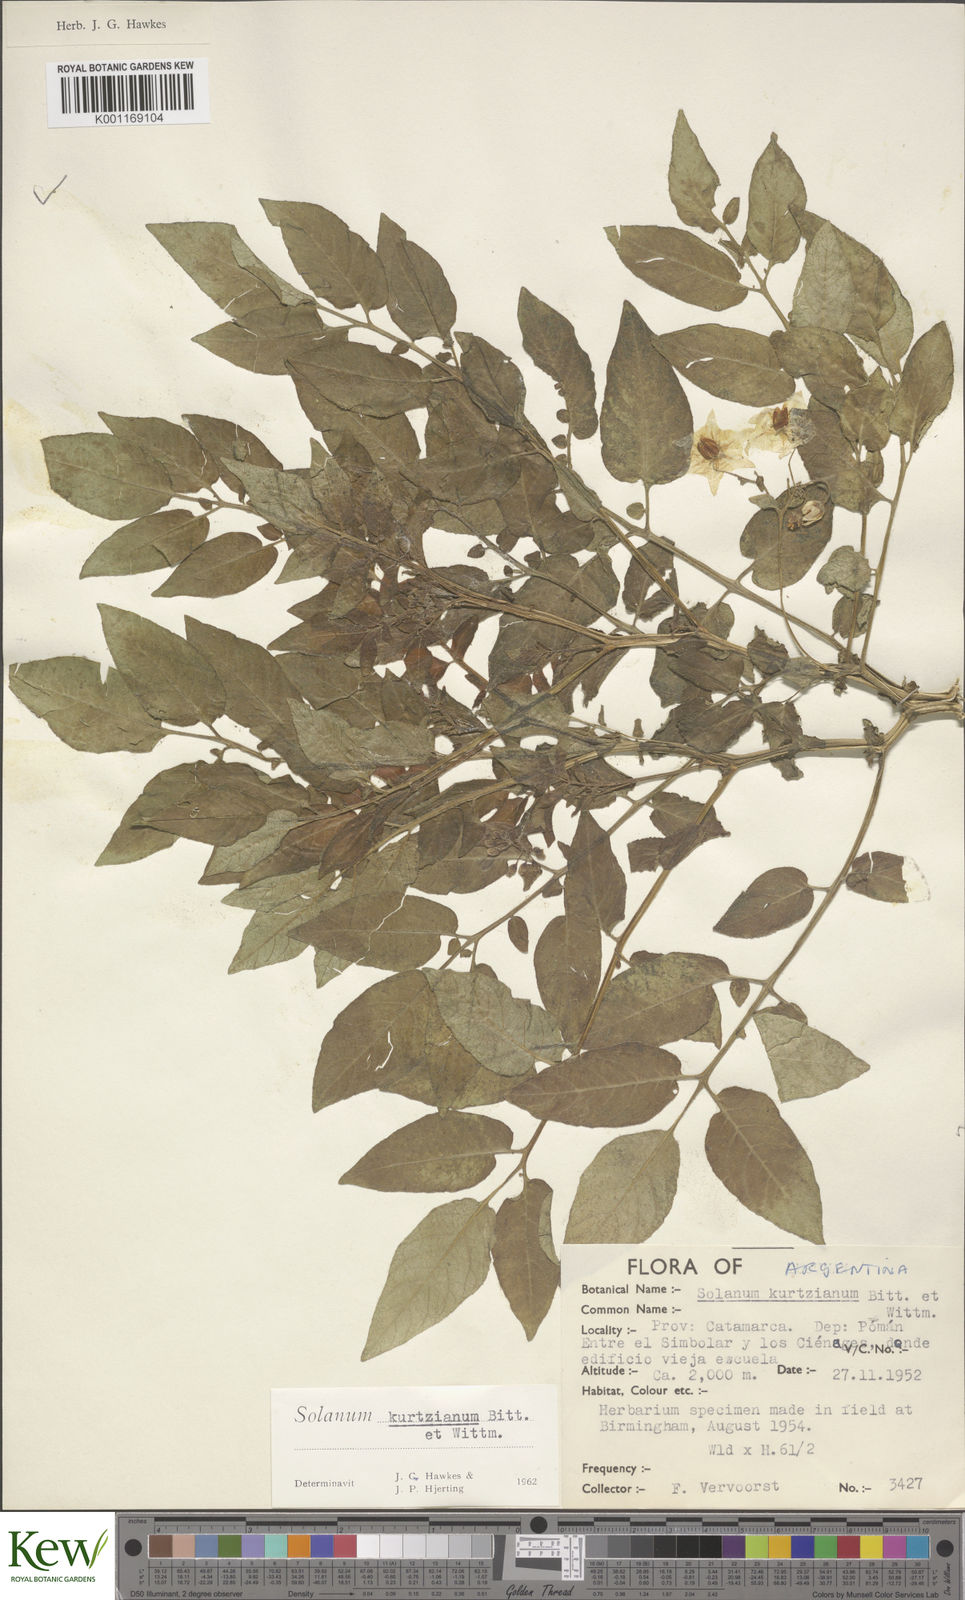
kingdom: Plantae
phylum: Tracheophyta
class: Magnoliopsida
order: Solanales
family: Solanaceae
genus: Solanum
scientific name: Solanum kurtzianum
